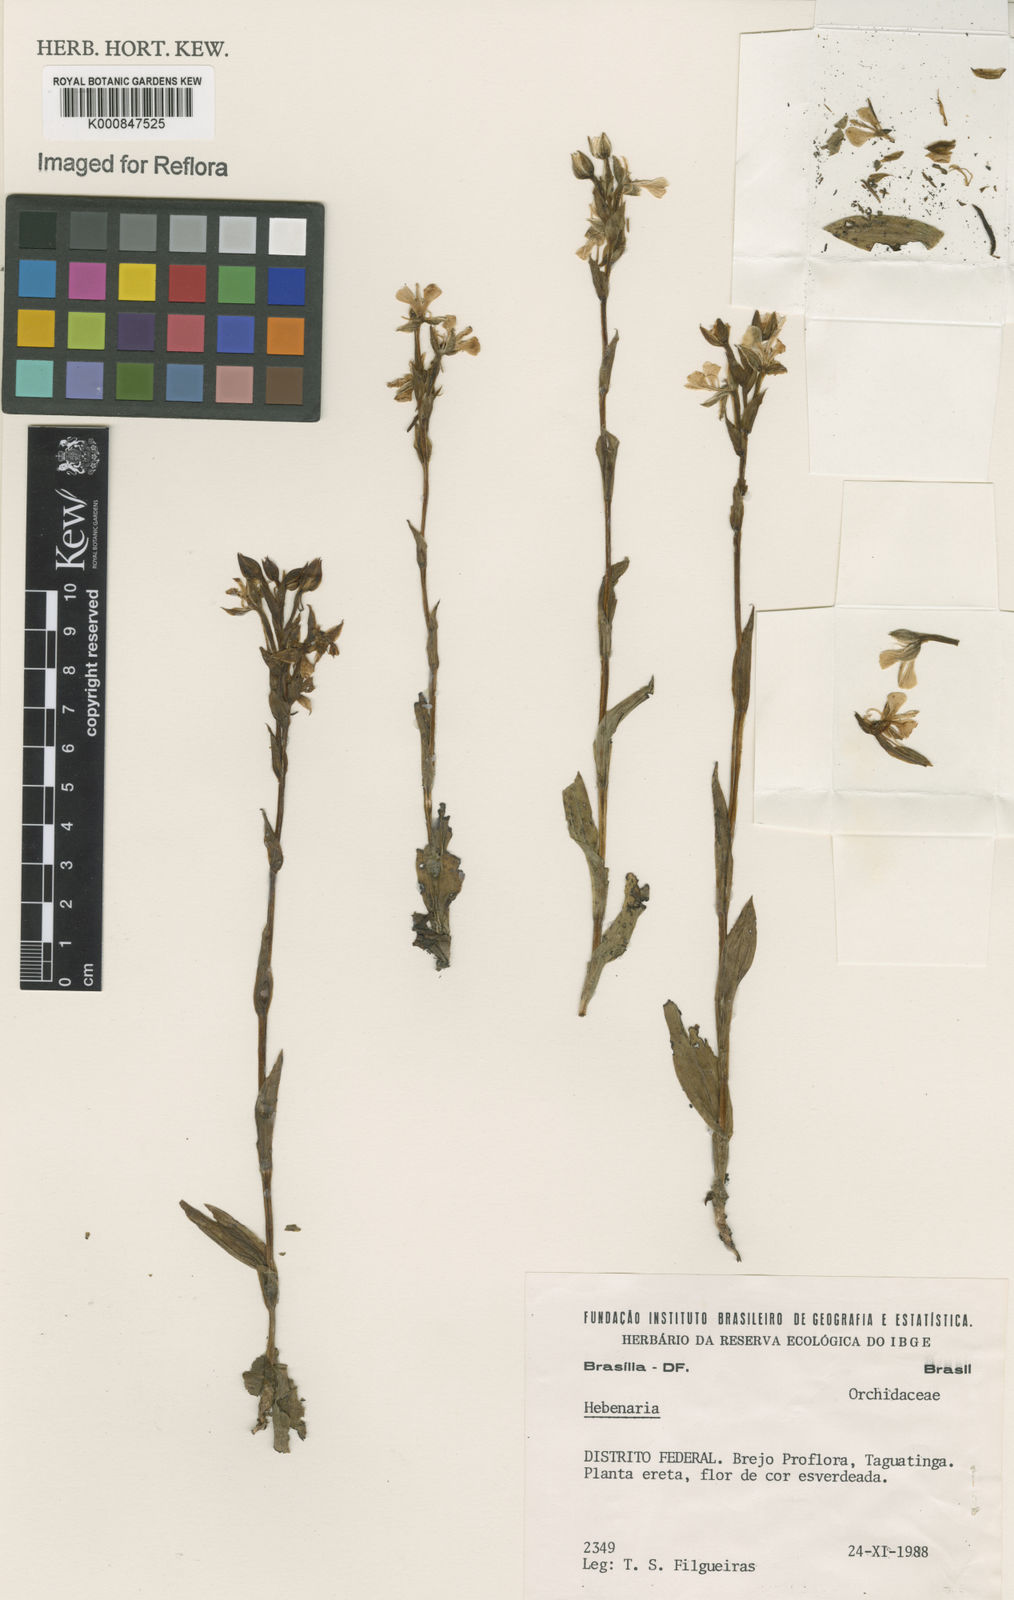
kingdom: Plantae
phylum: Tracheophyta
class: Liliopsida
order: Asparagales
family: Orchidaceae
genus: Habenaria
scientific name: Habenaria
